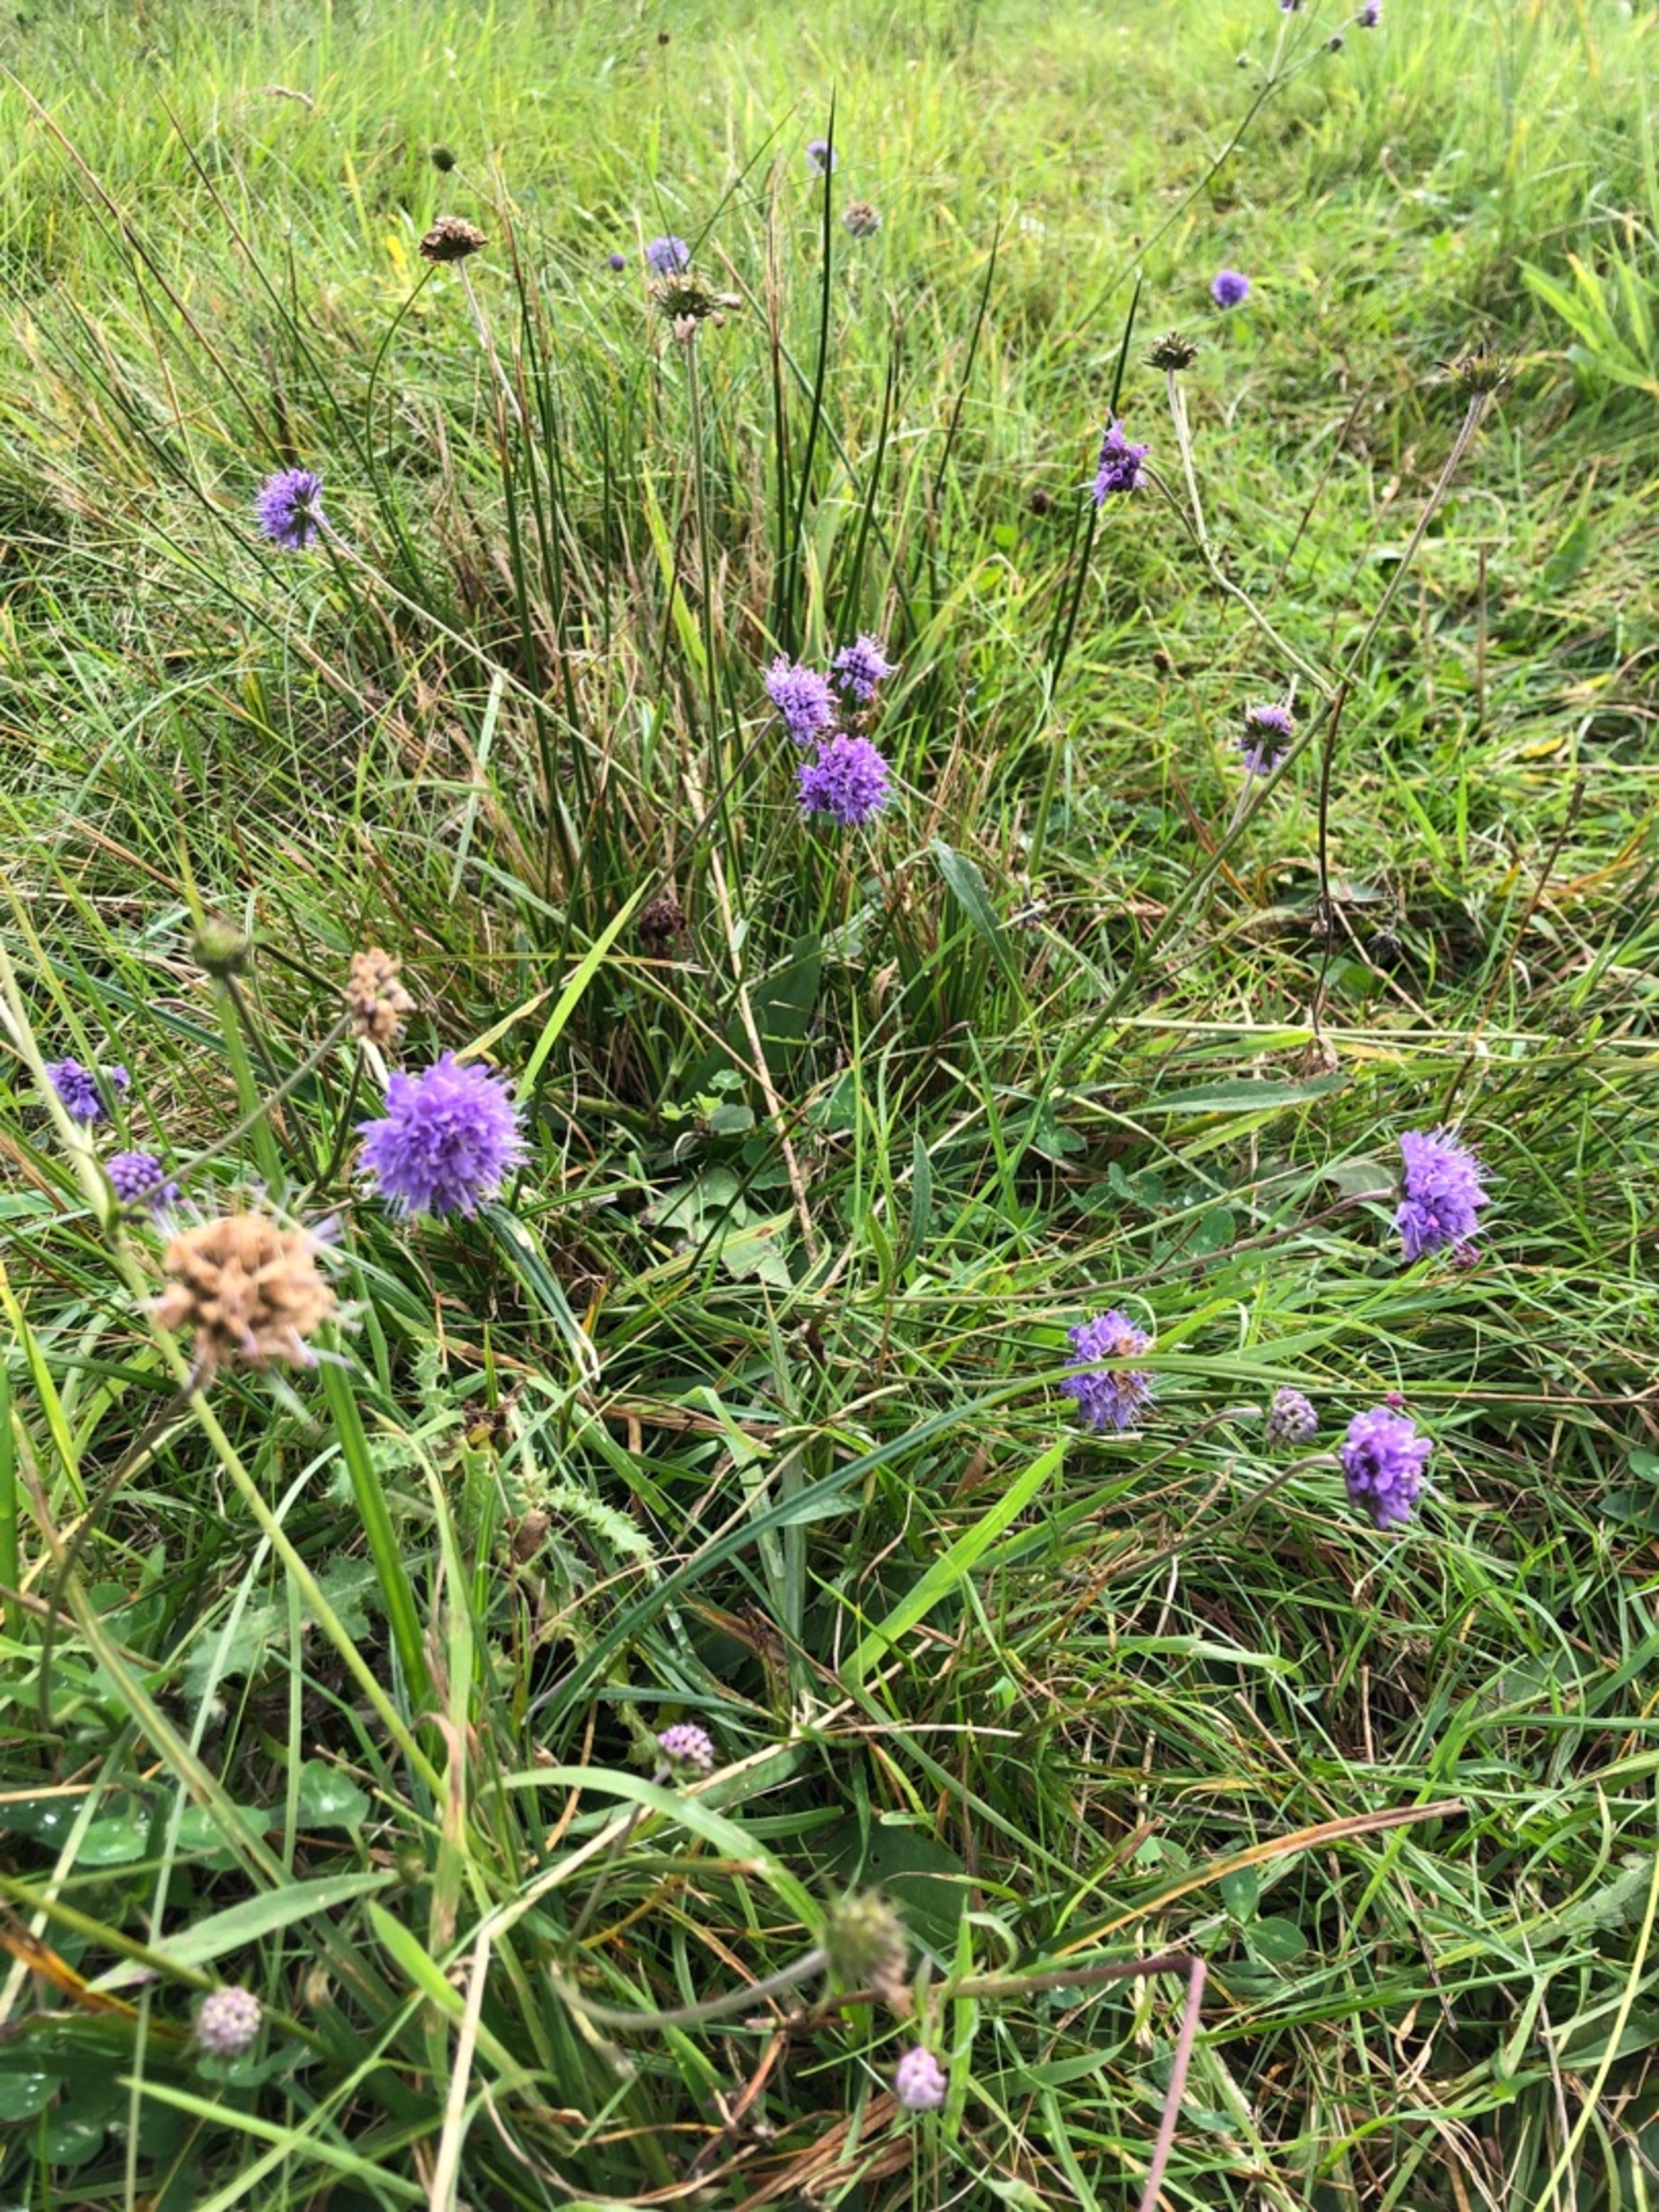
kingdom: Plantae
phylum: Tracheophyta
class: Magnoliopsida
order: Dipsacales
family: Caprifoliaceae
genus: Succisa
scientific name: Succisa pratensis
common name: Djævelsbid
